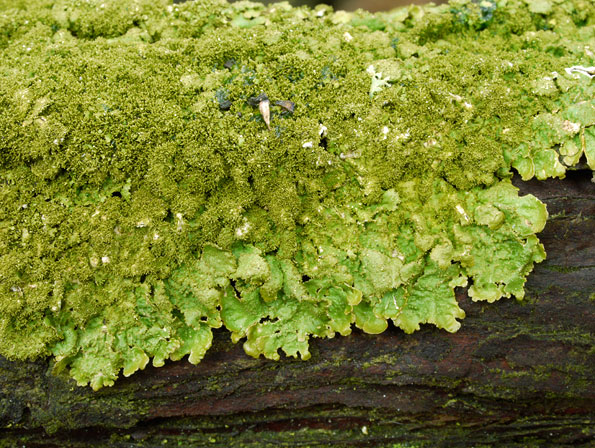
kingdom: Fungi
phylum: Ascomycota
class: Lecanoromycetes
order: Lecanorales
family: Parmeliaceae
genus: Melanelixia
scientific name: Melanelixia glabratula
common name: glinsende skållav
